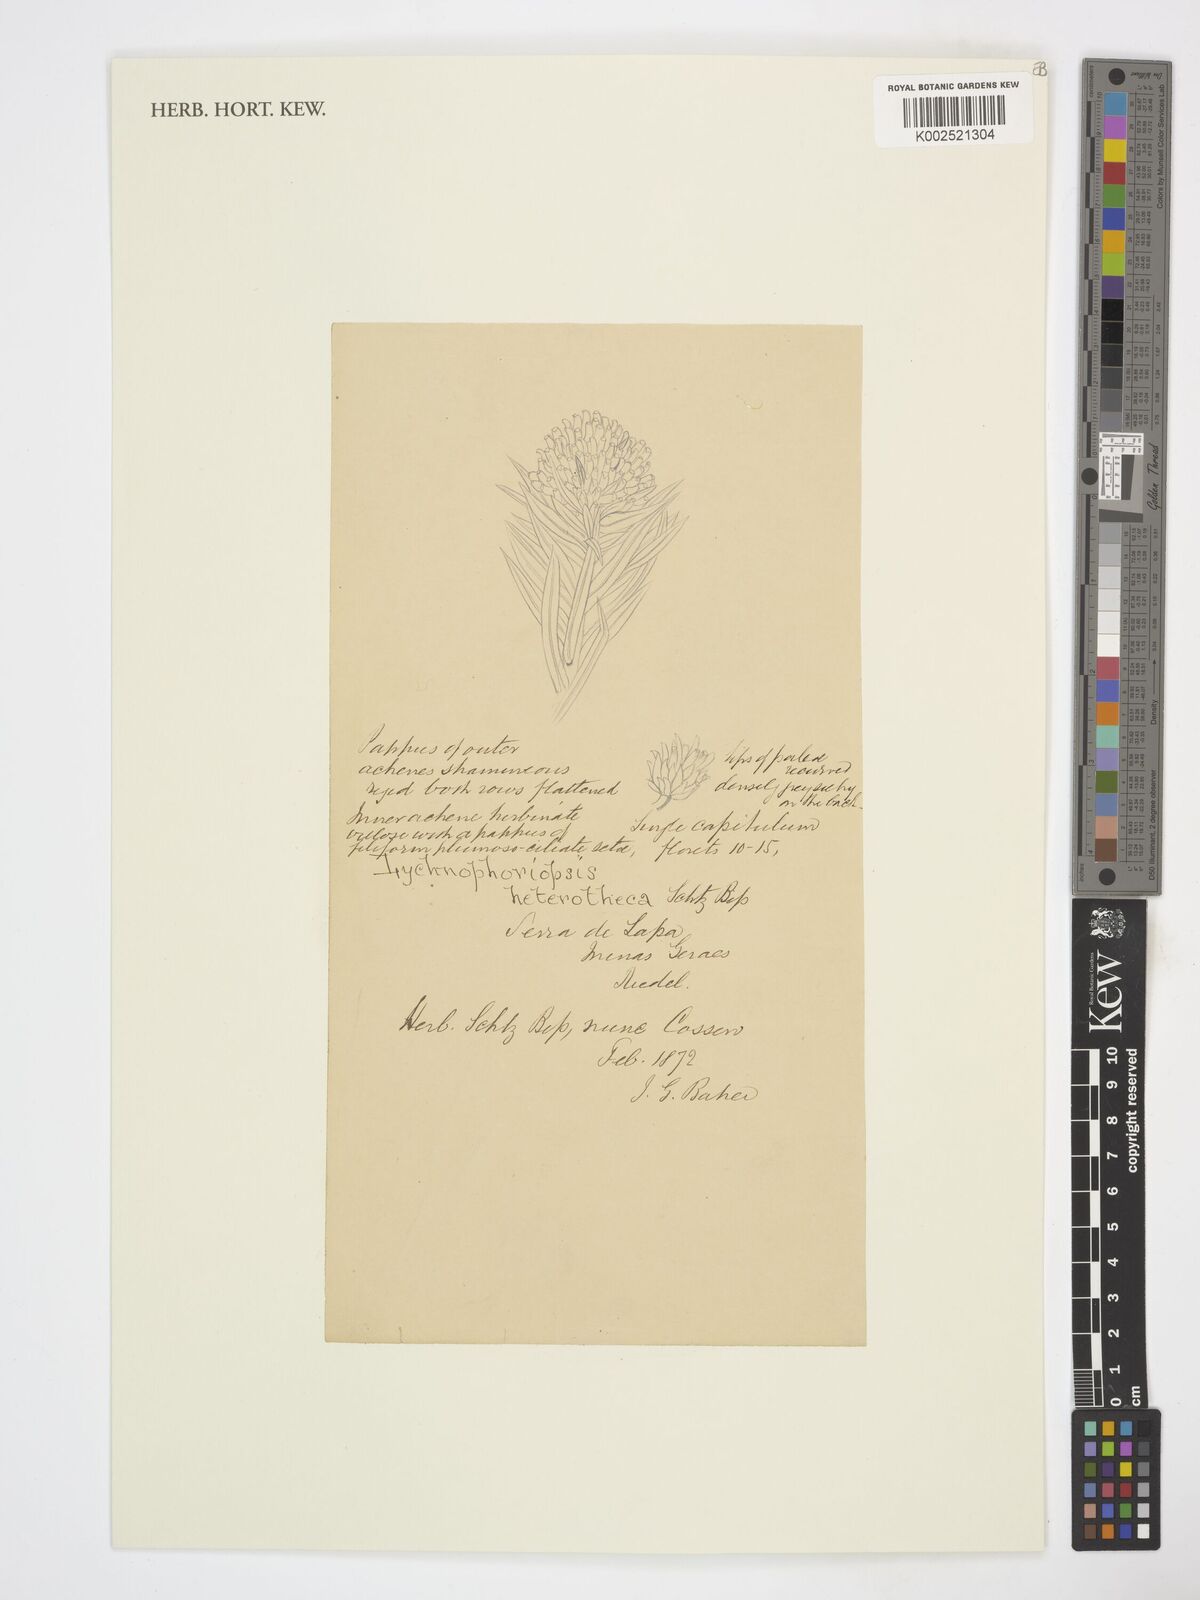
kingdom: Plantae
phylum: Tracheophyta
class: Magnoliopsida
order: Asterales
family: Asteraceae
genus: Heterotheca
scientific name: Heterotheca
